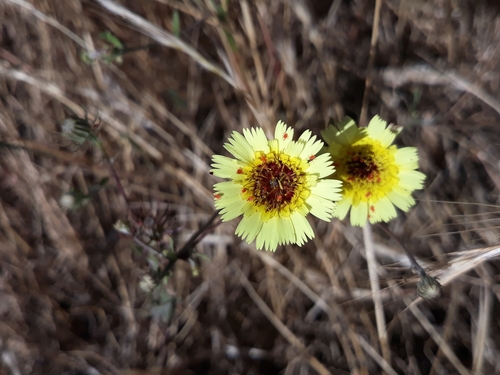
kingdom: Plantae
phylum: Tracheophyta
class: Magnoliopsida
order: Asterales
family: Asteraceae
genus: Tolpis
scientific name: Tolpis barbata
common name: Yellow hawkweed
